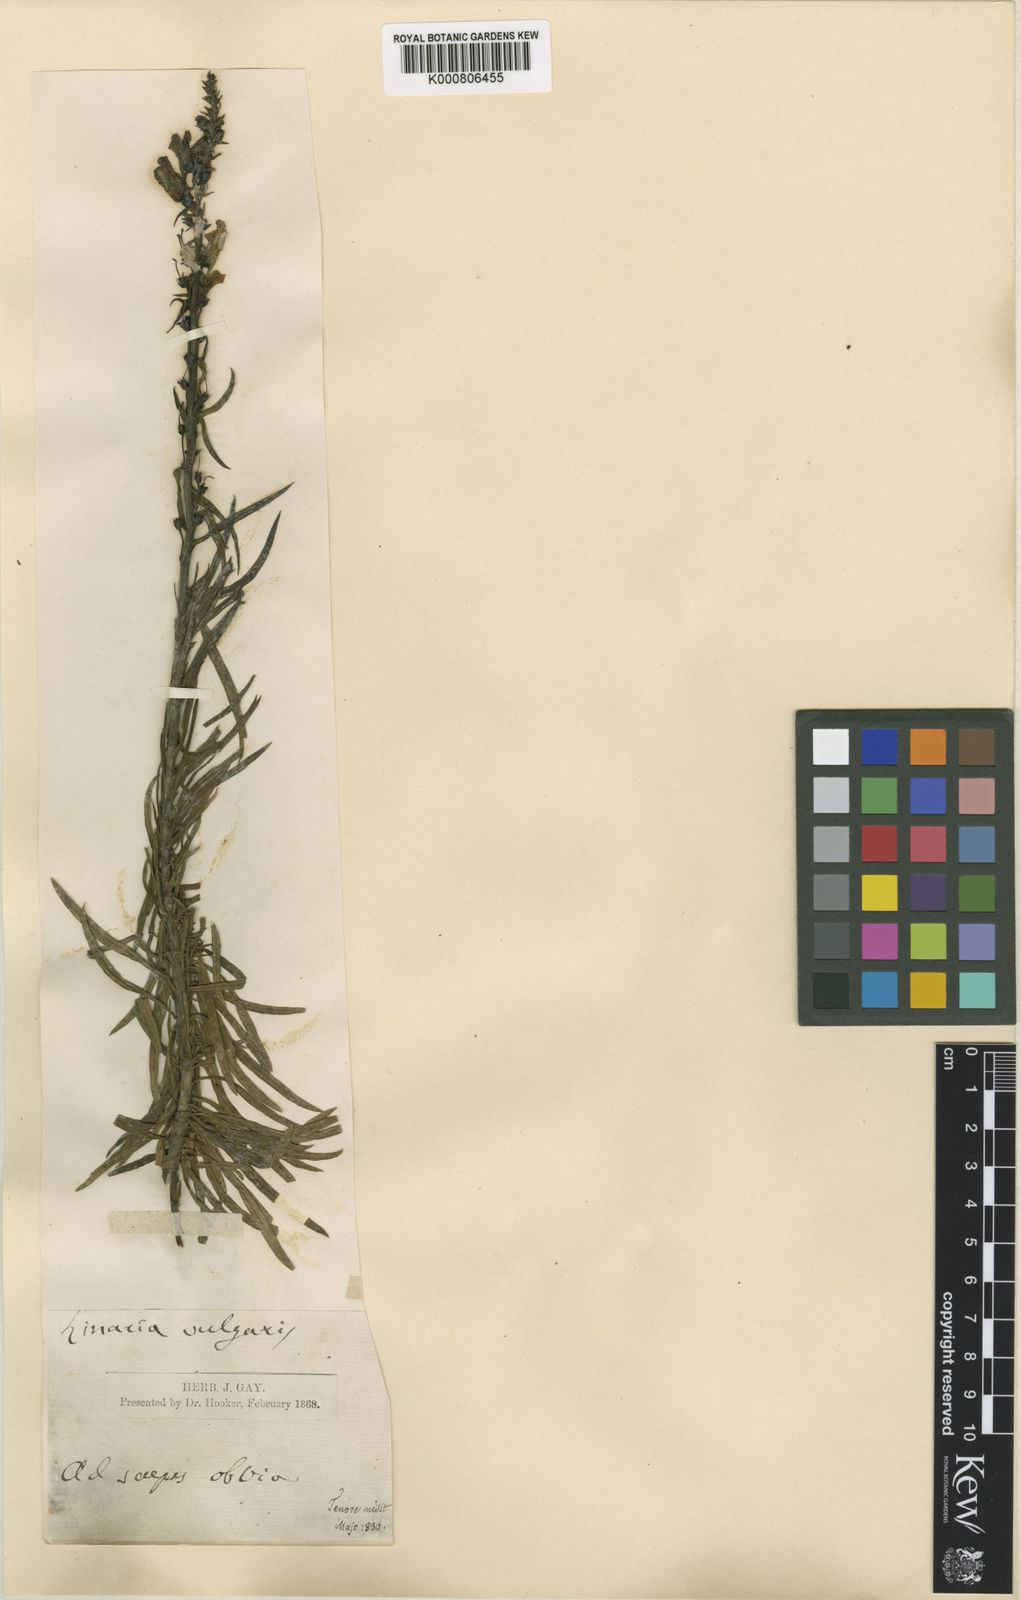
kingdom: Plantae
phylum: Tracheophyta
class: Magnoliopsida
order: Lamiales
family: Plantaginaceae
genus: Linaria
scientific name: Linaria vulgaris
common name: Butter and eggs
